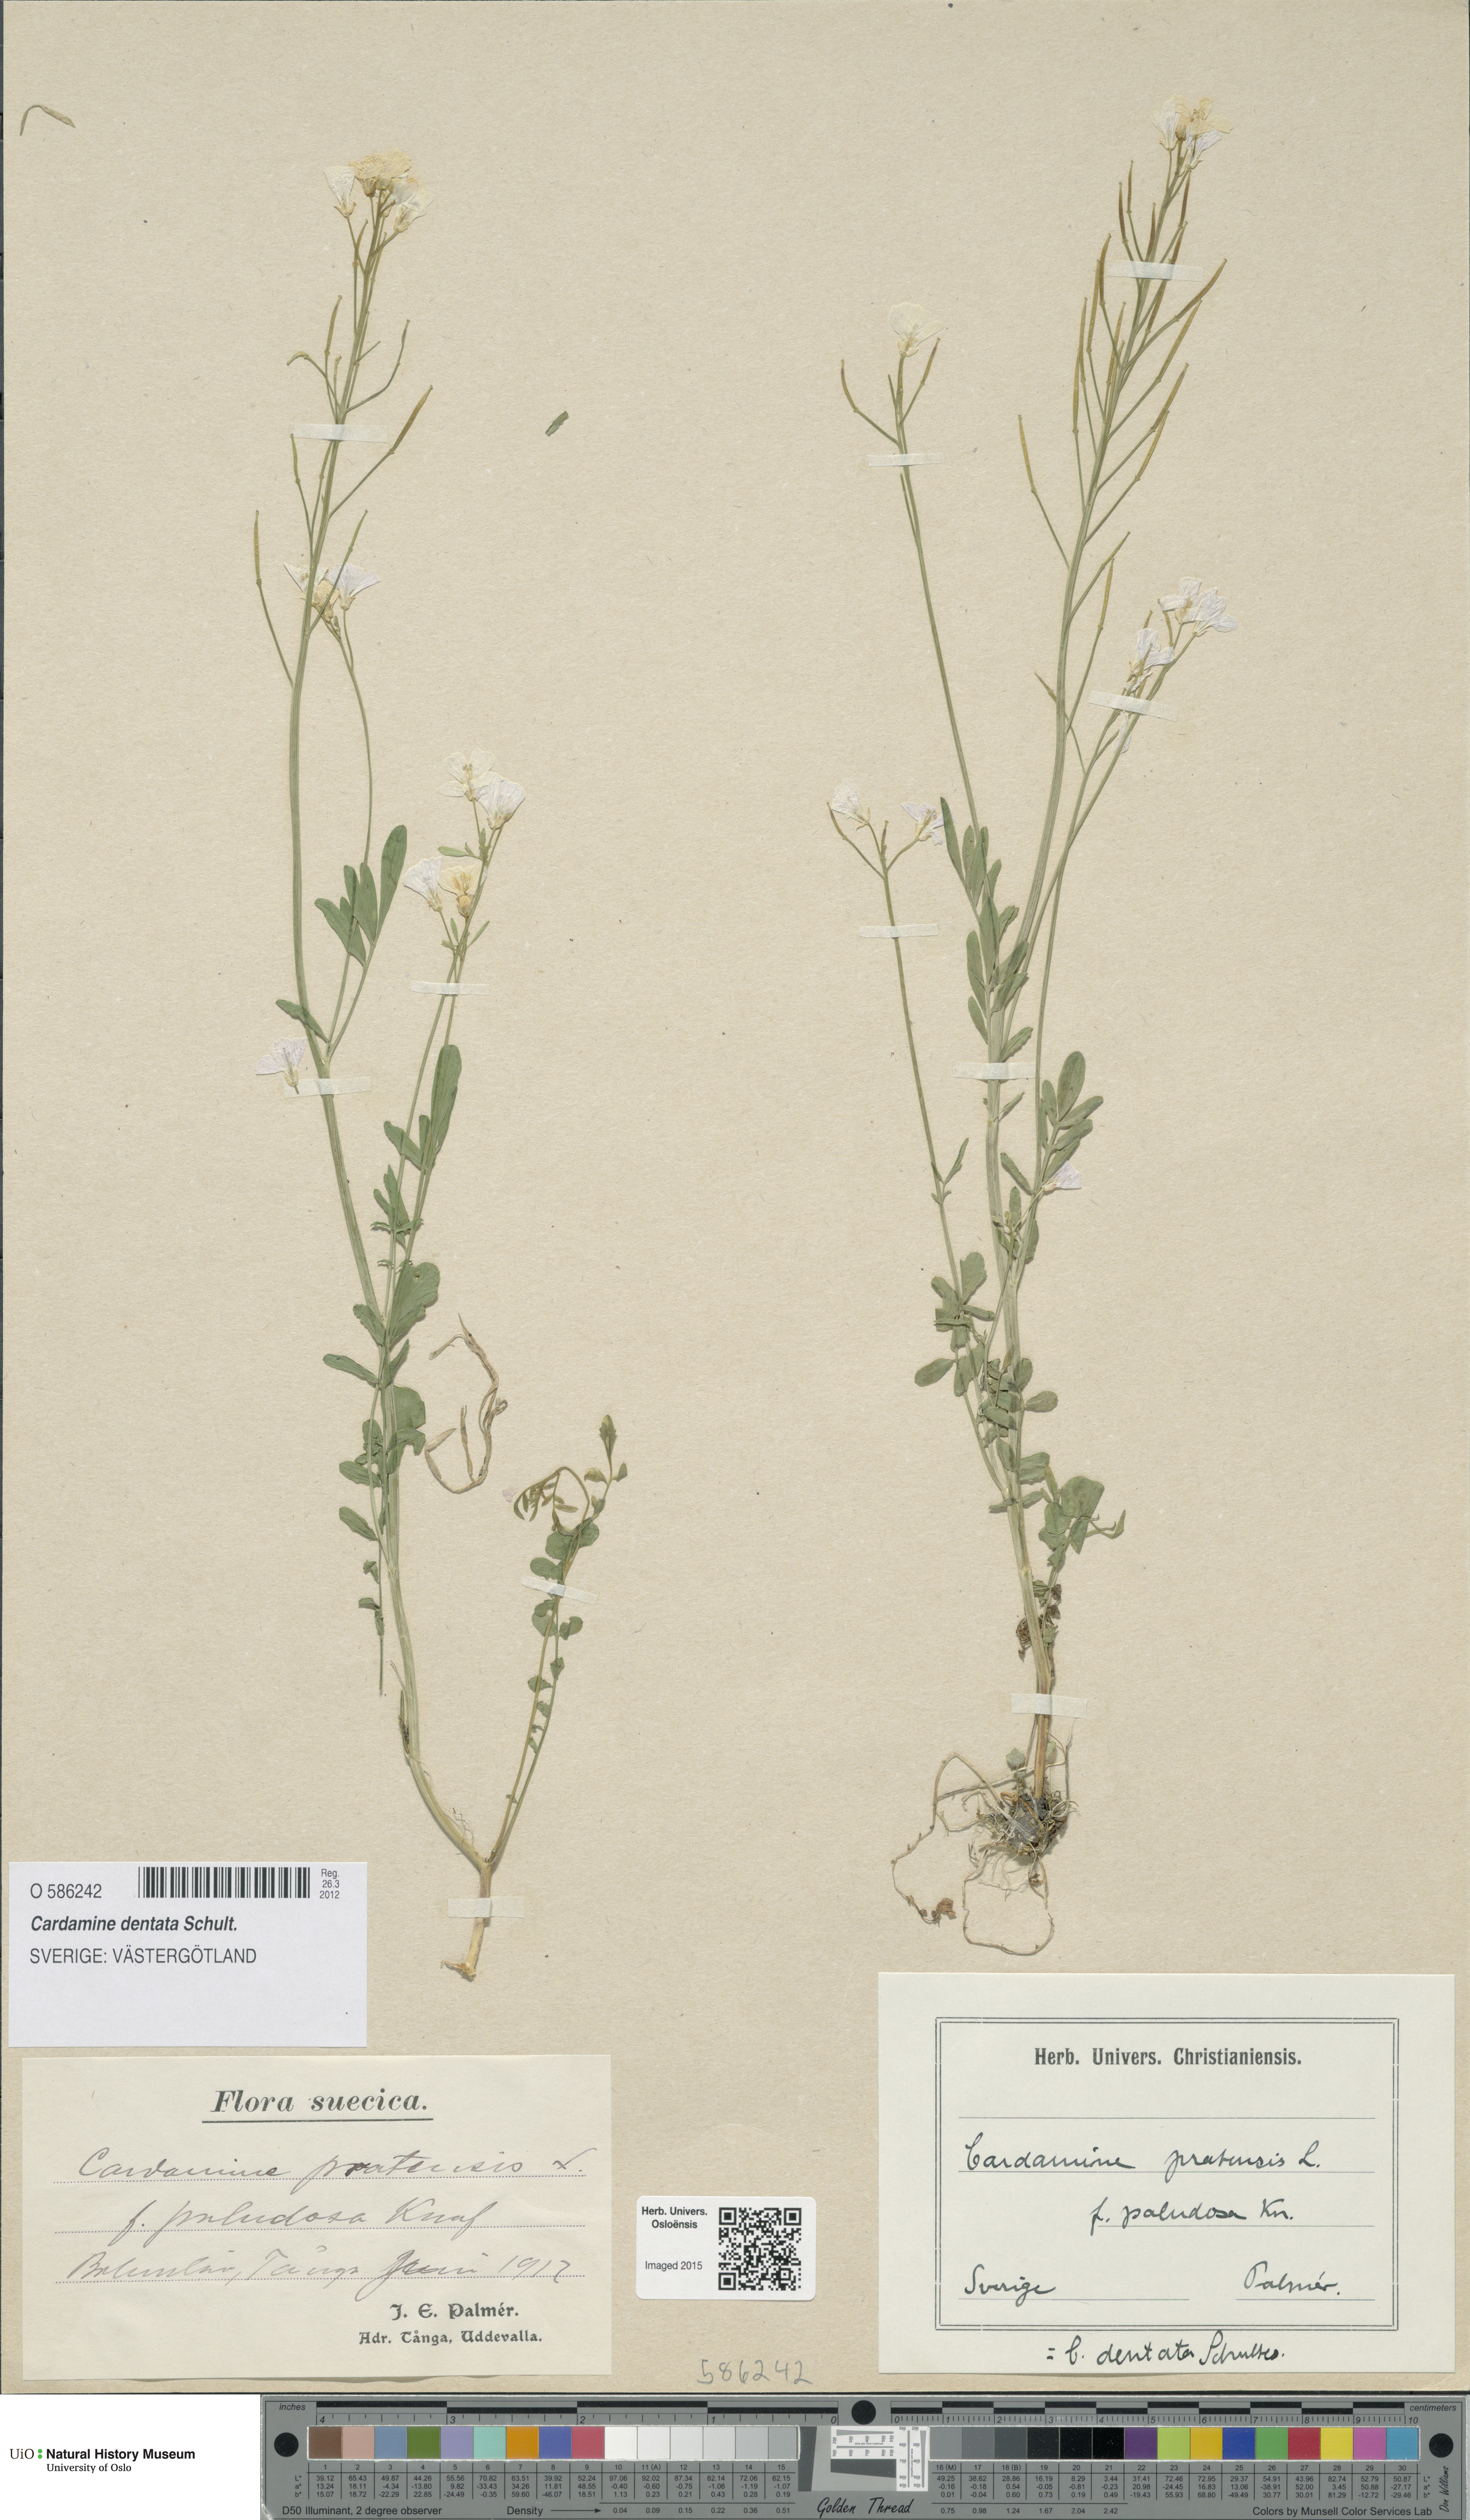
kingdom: Plantae
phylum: Tracheophyta
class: Magnoliopsida
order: Brassicales
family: Brassicaceae
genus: Cardamine
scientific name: Cardamine dentata
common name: Toothed bittercress
